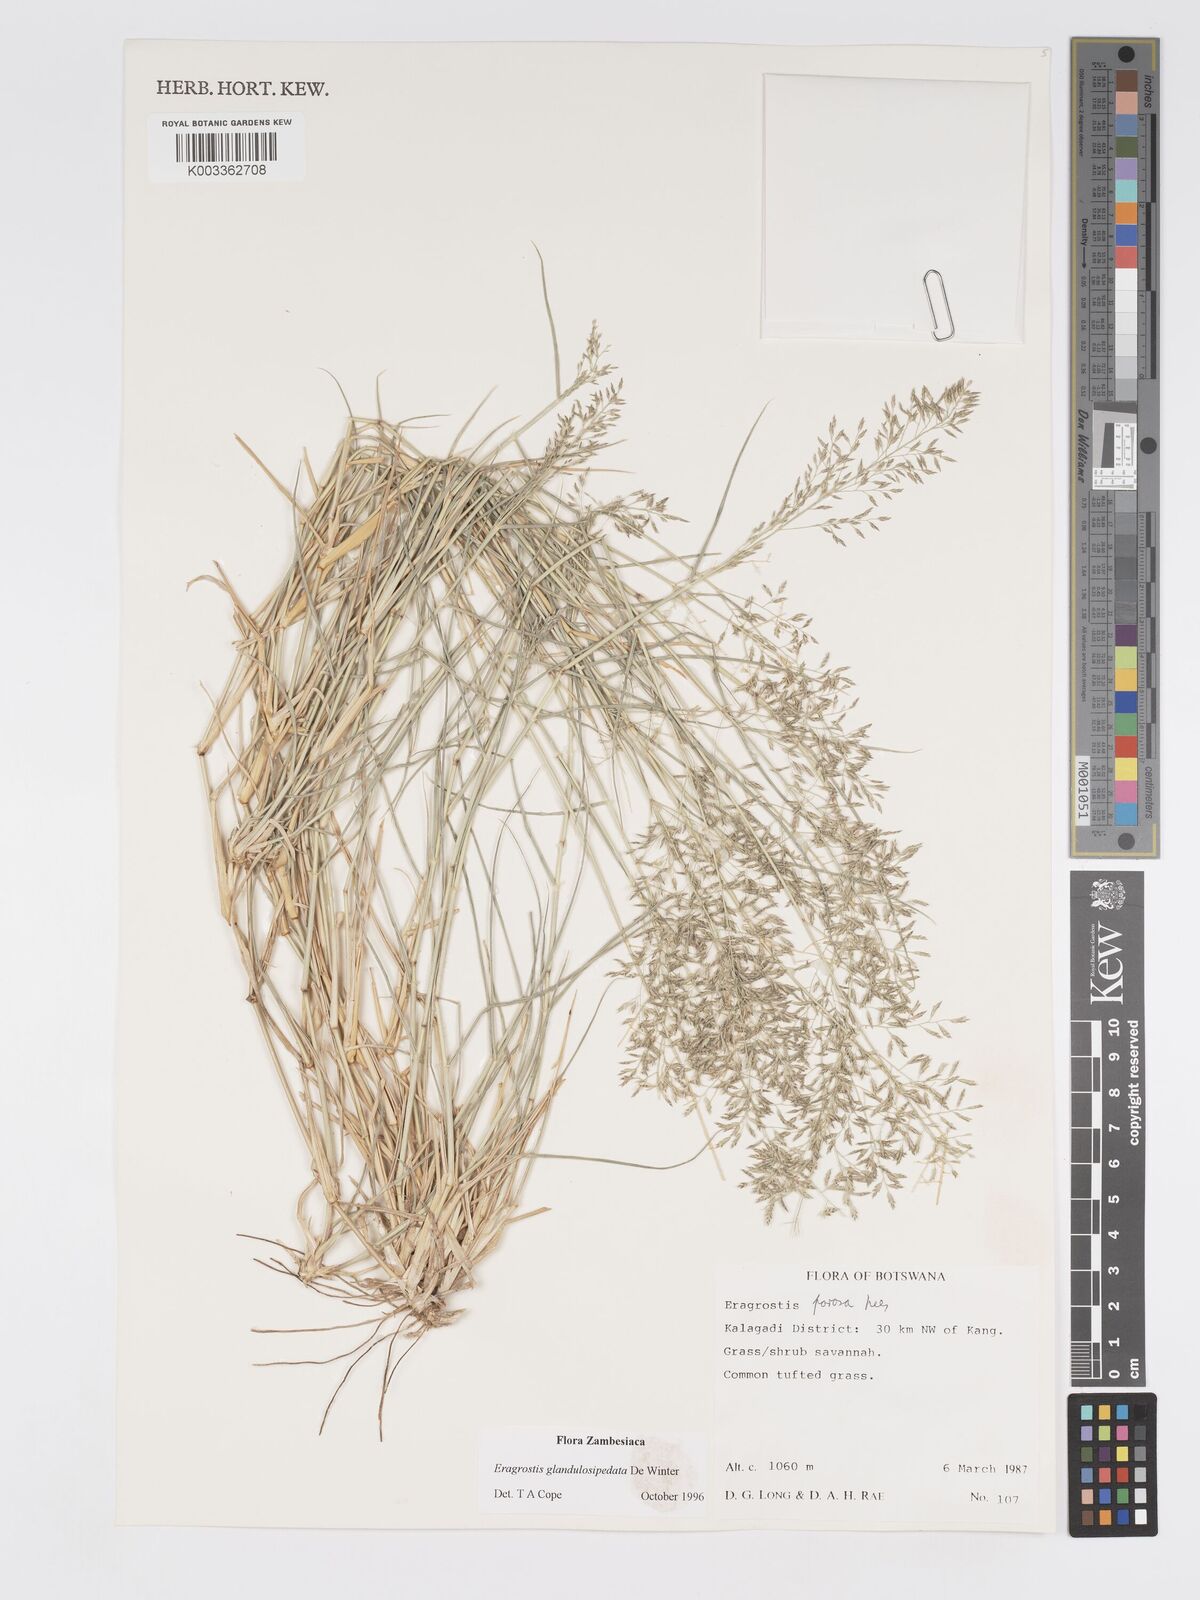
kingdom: Plantae
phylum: Tracheophyta
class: Liliopsida
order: Poales
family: Poaceae
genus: Eragrostis
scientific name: Eragrostis glandulosipedata
